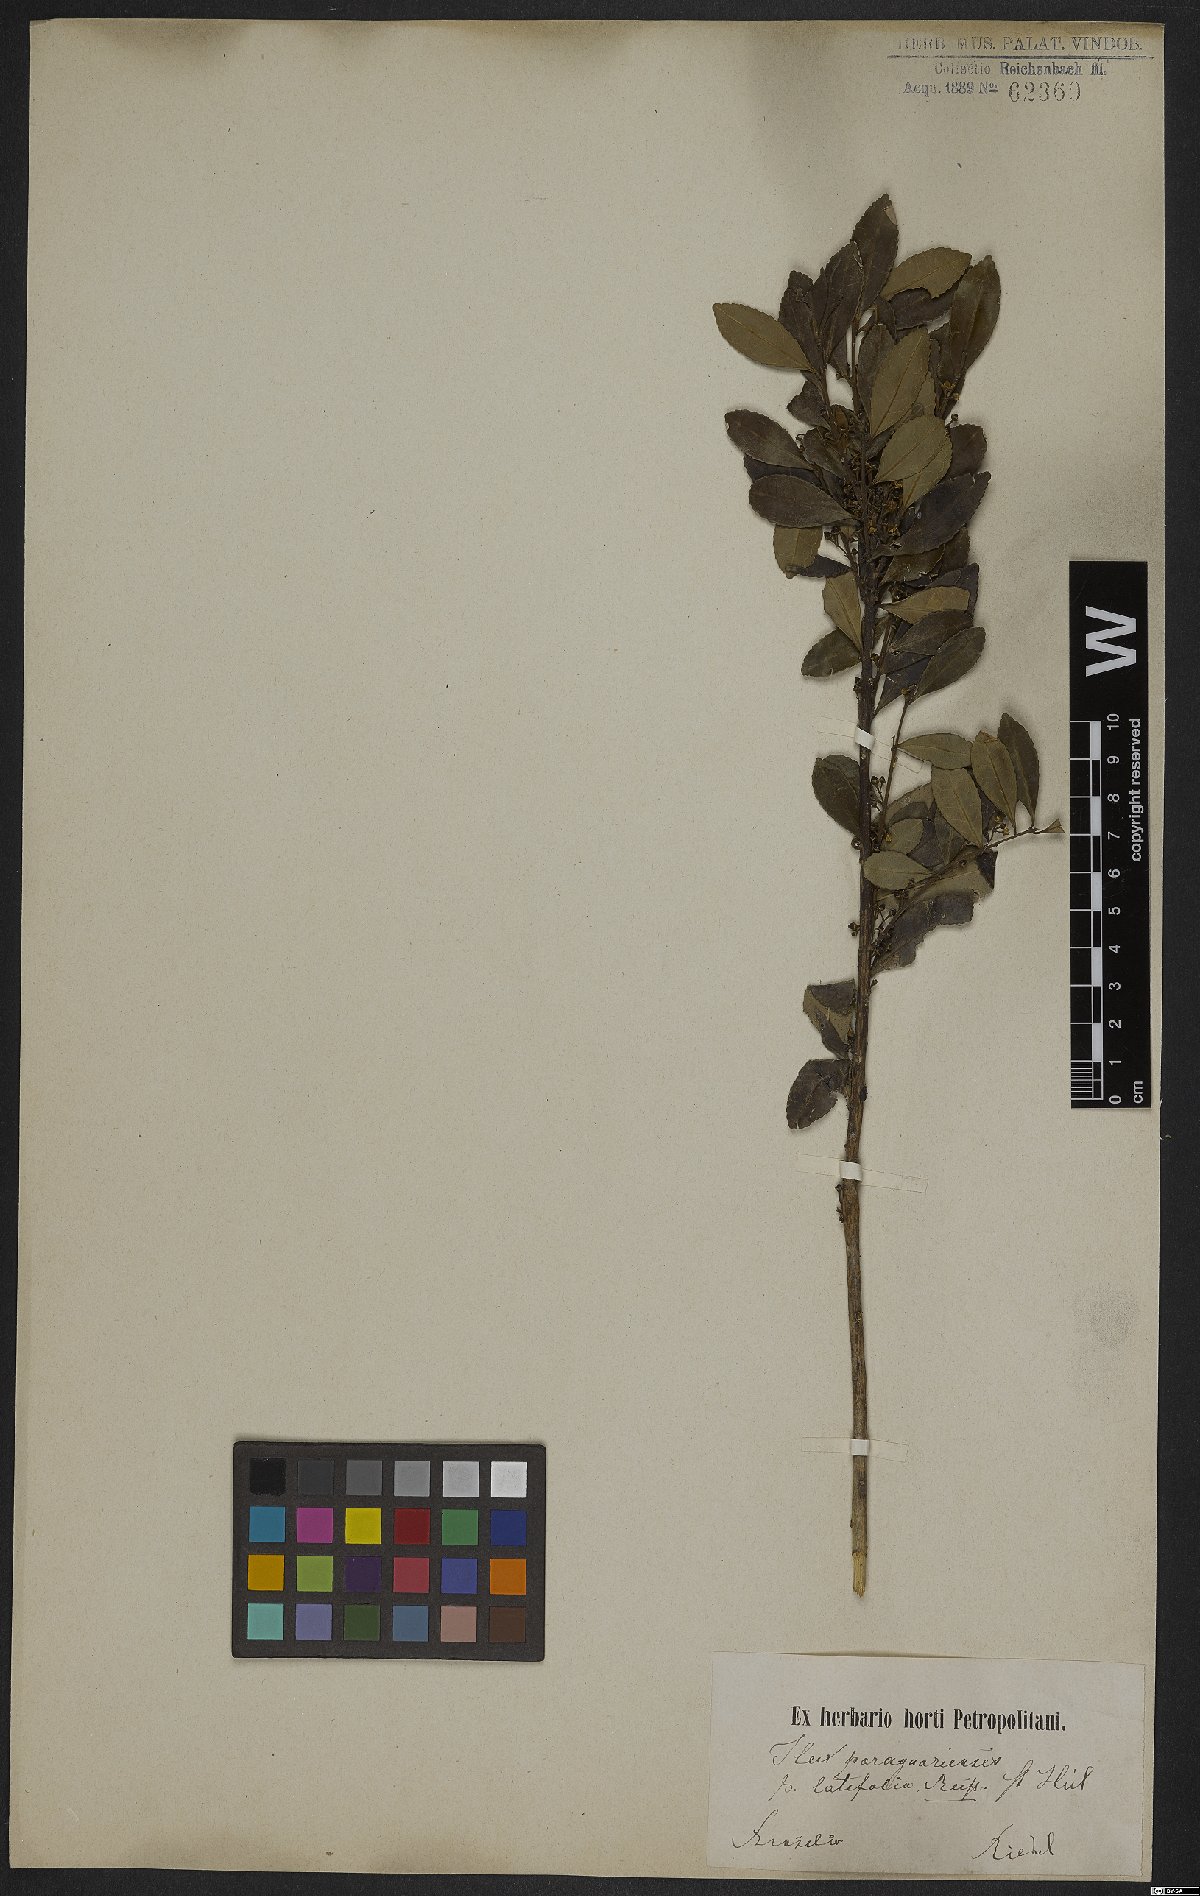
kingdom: Plantae
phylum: Tracheophyta
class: Magnoliopsida
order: Aquifoliales
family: Aquifoliaceae
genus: Ilex
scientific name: Ilex paraguariensis
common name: Paraguay tea
